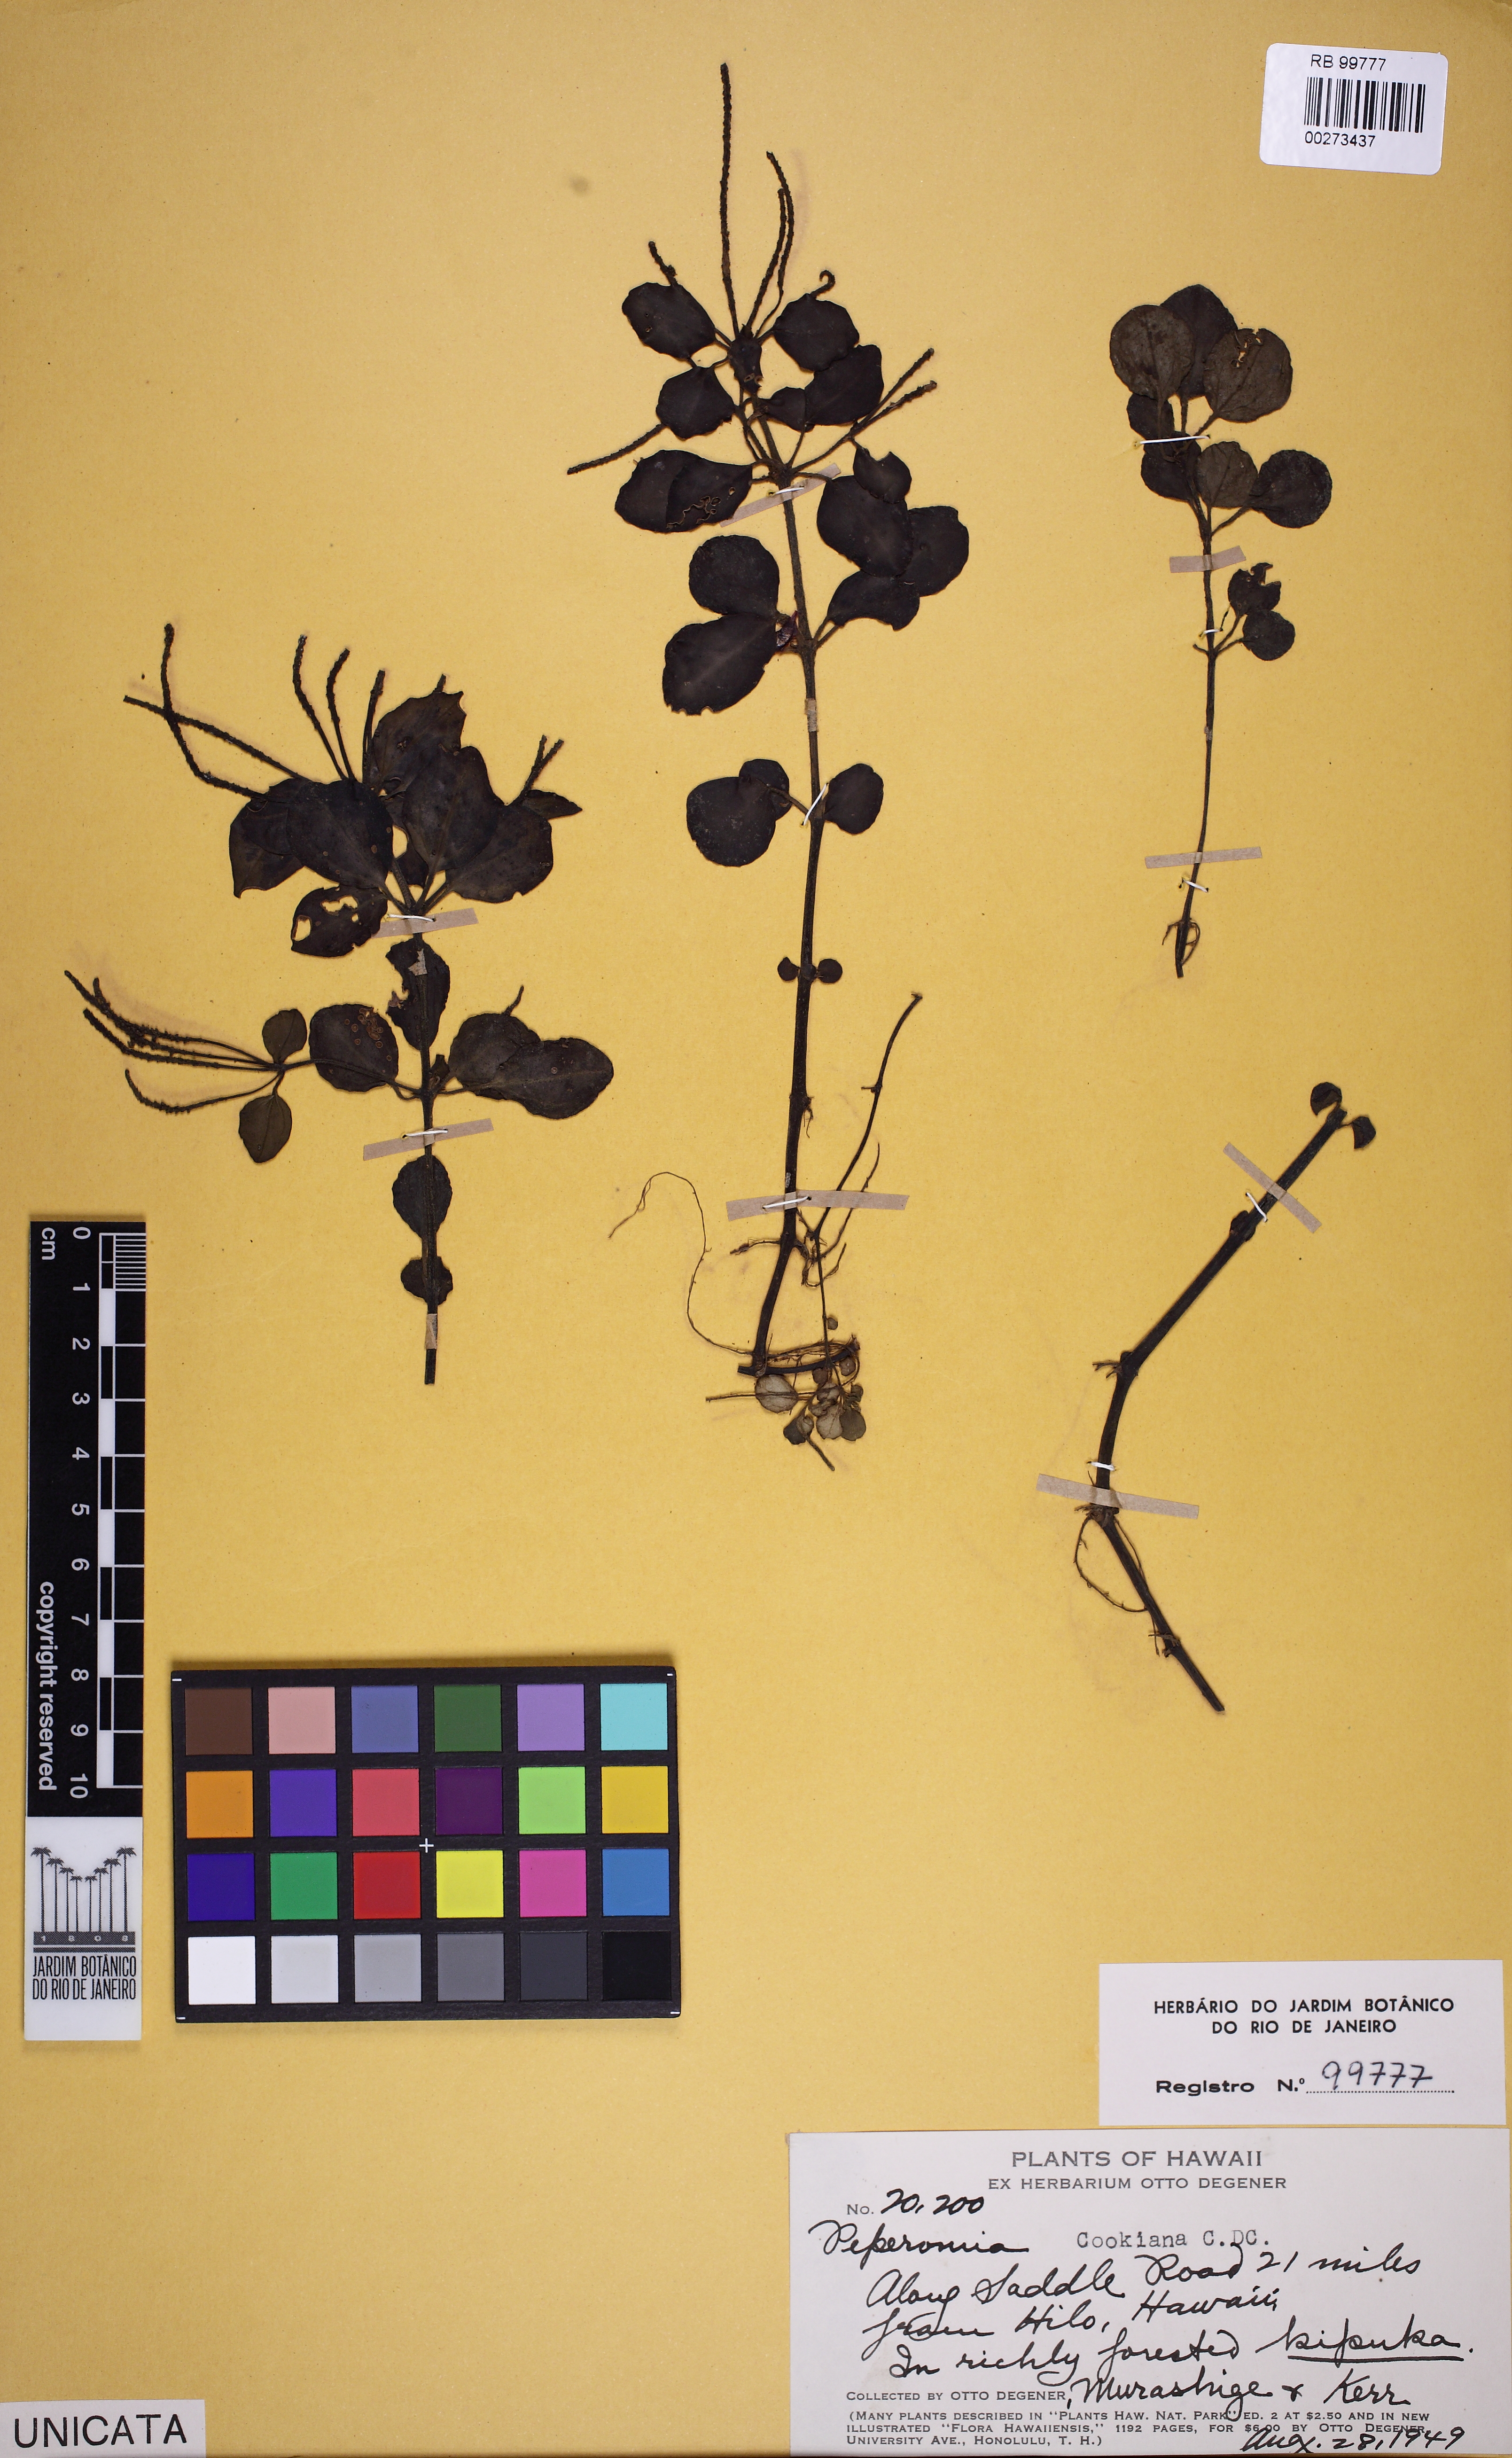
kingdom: Plantae
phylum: Tracheophyta
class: Magnoliopsida
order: Piperales
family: Piperaceae
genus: Peperomia
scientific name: Peperomia cookiana
